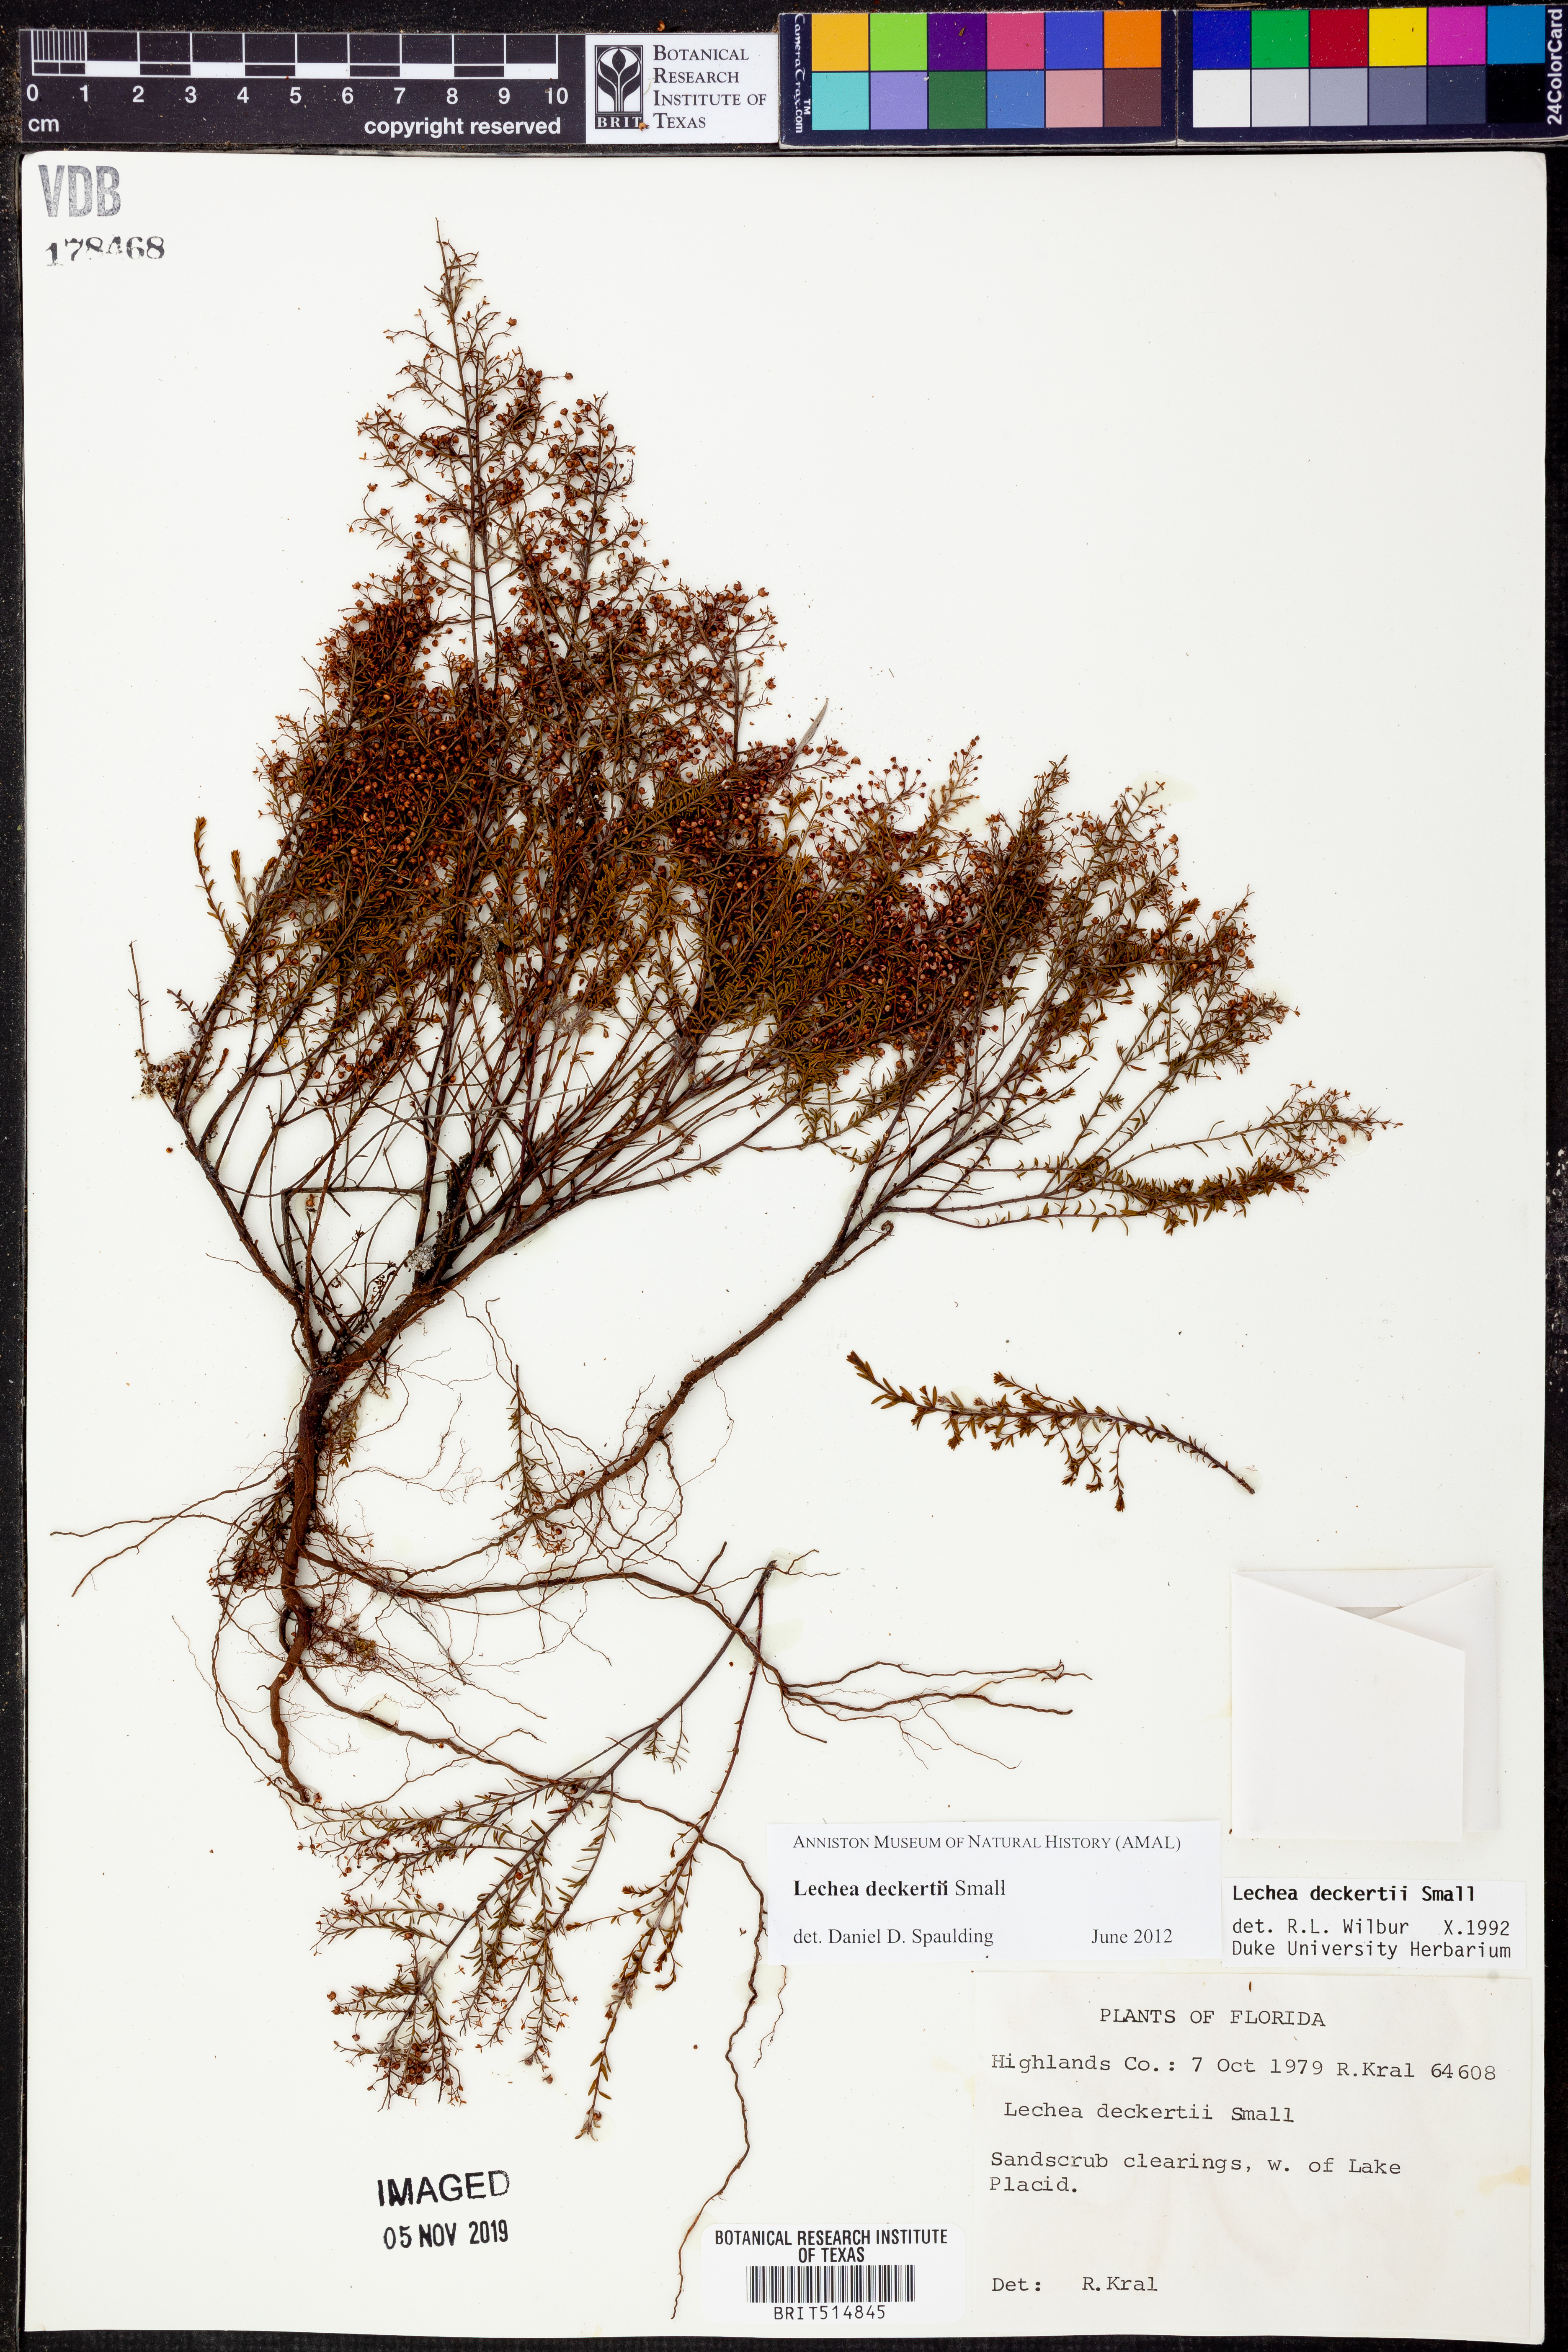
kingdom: Plantae
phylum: Tracheophyta
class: Magnoliopsida
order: Malvales
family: Cistaceae
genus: Lechea
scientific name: Lechea deckertii
